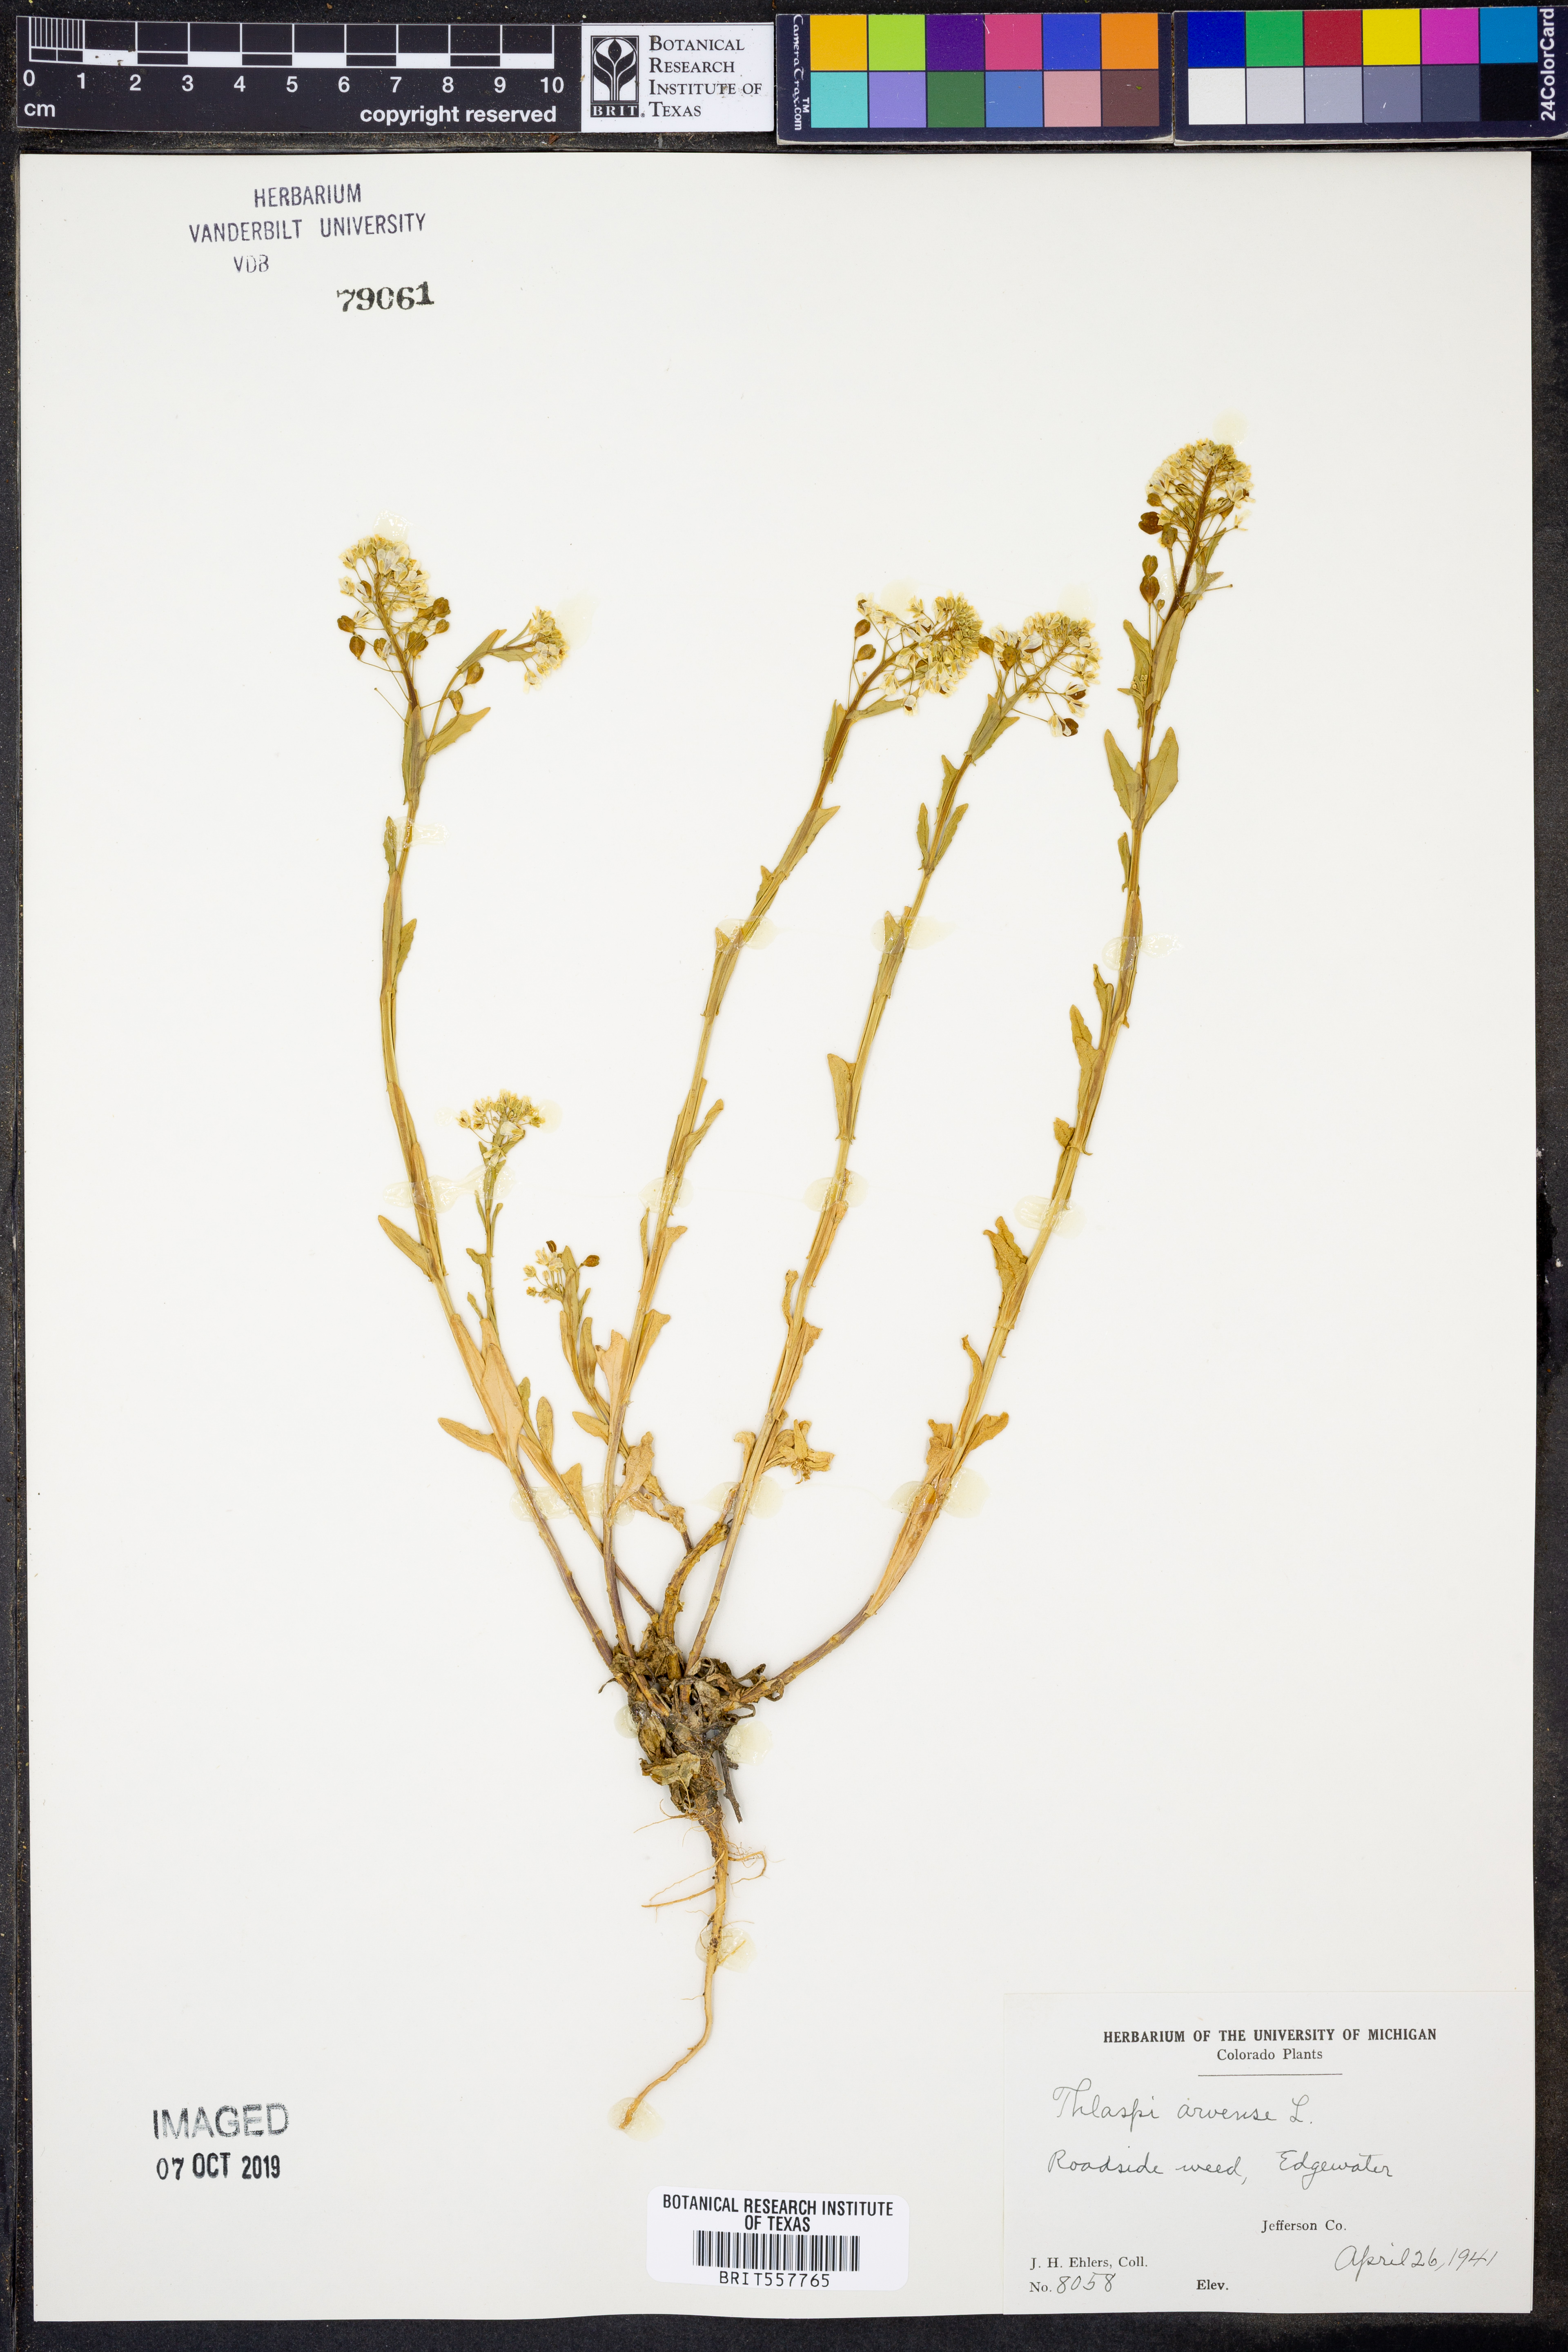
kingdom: Plantae
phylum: Tracheophyta
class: Magnoliopsida
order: Brassicales
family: Brassicaceae
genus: Thlaspi
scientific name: Thlaspi arvense
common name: Field pennycress
